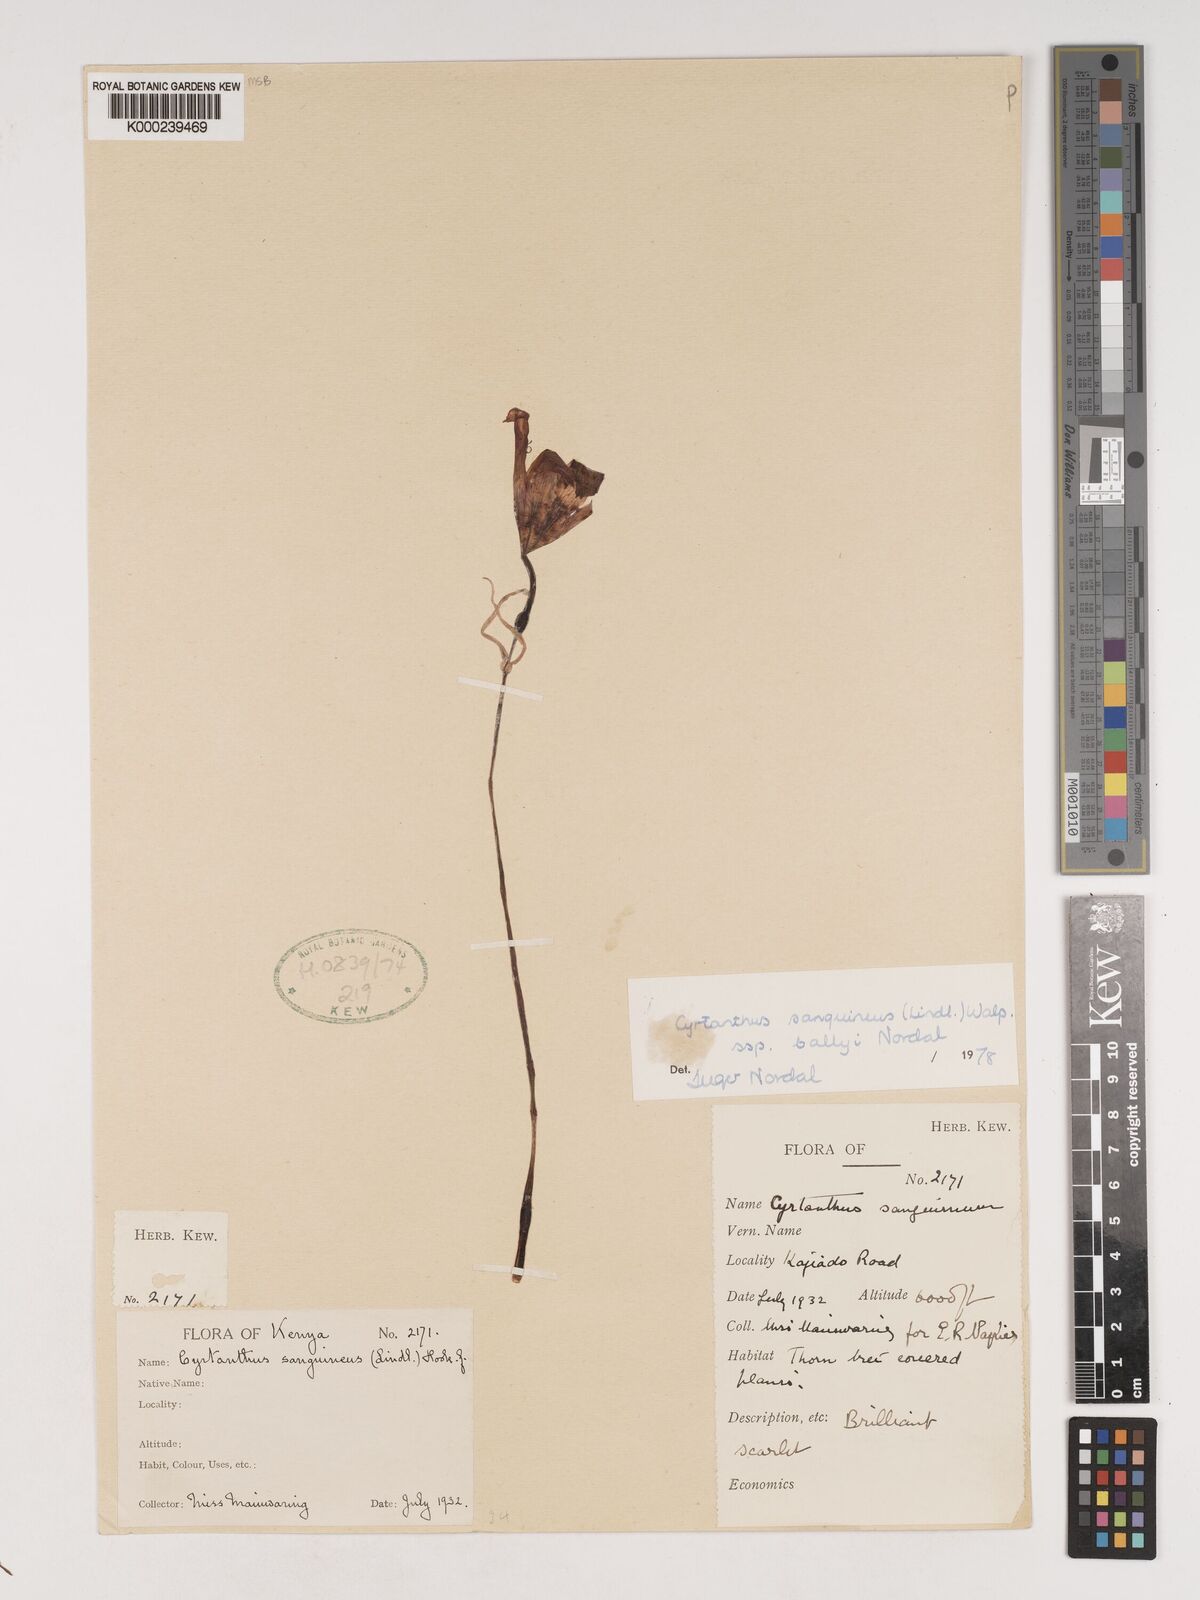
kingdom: Plantae
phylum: Tracheophyta
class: Liliopsida
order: Asparagales
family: Amaryllidaceae
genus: Cyrtanthus
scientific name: Cyrtanthus sanguineus
